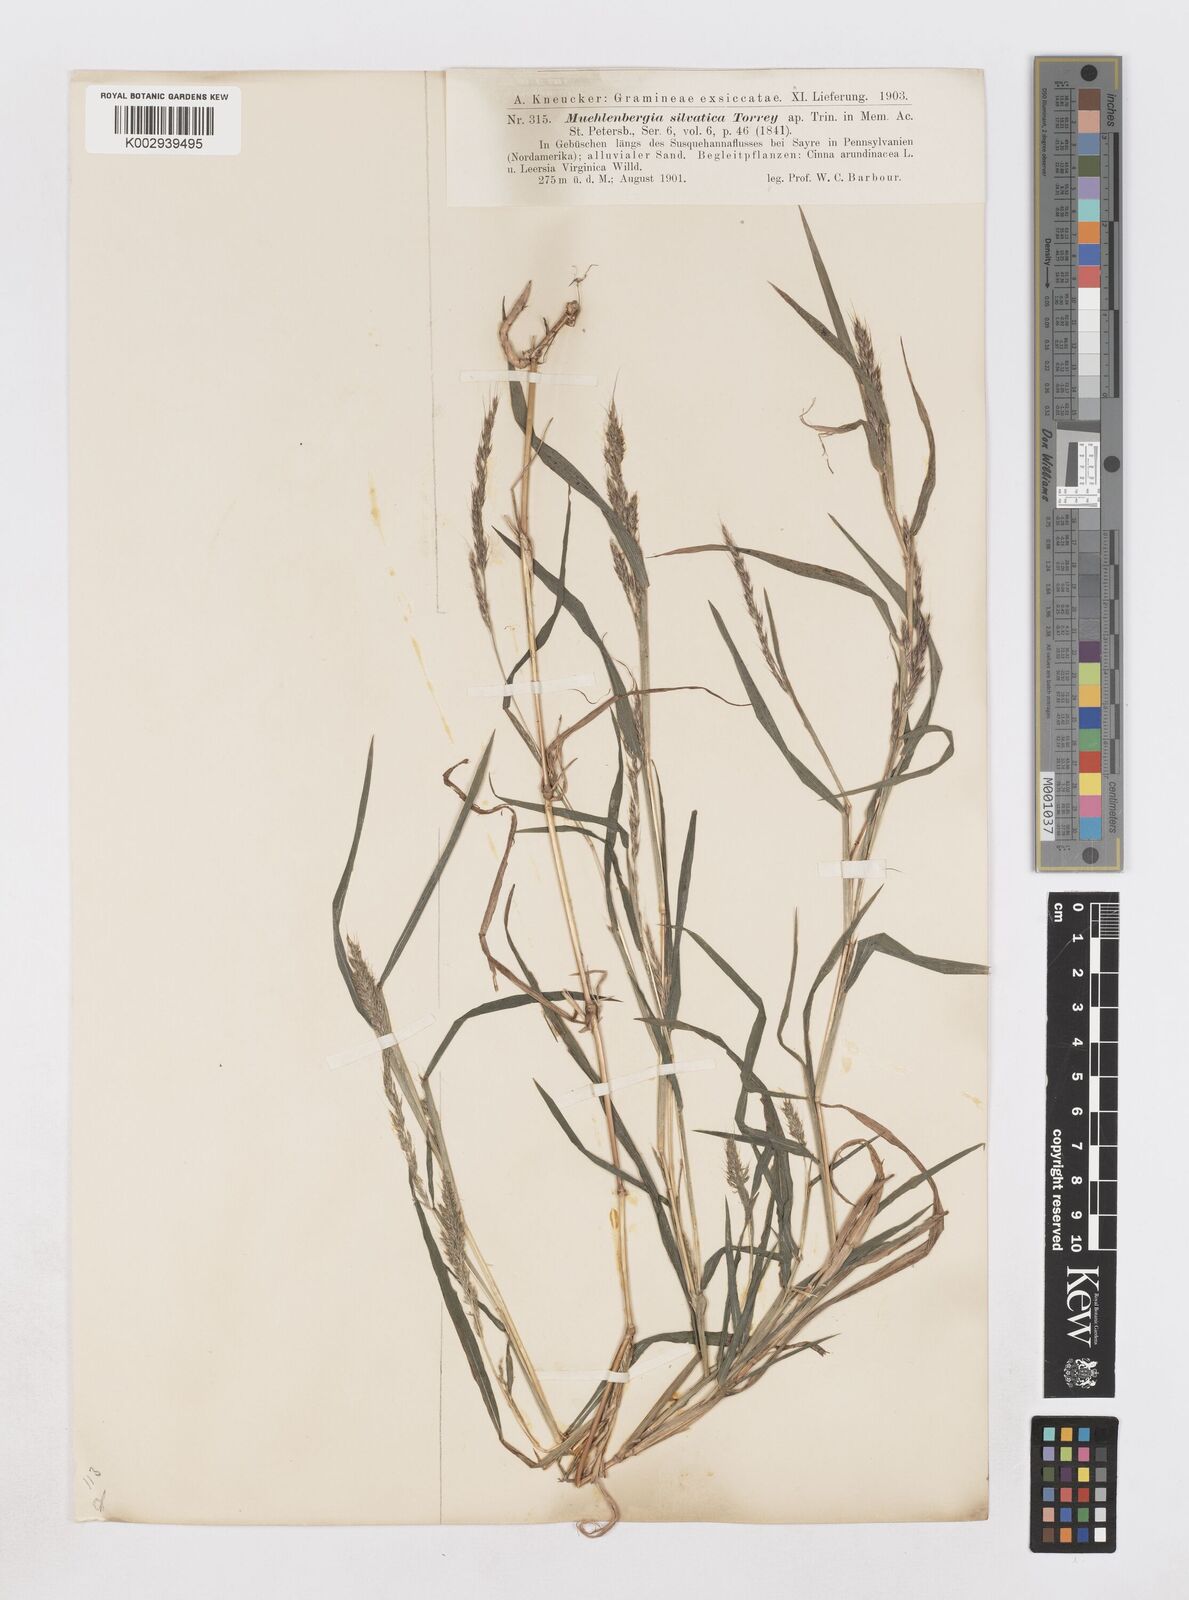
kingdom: Plantae
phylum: Tracheophyta
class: Liliopsida
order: Poales
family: Poaceae
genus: Muhlenbergia
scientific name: Muhlenbergia sylvatica
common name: Woodland muhly
